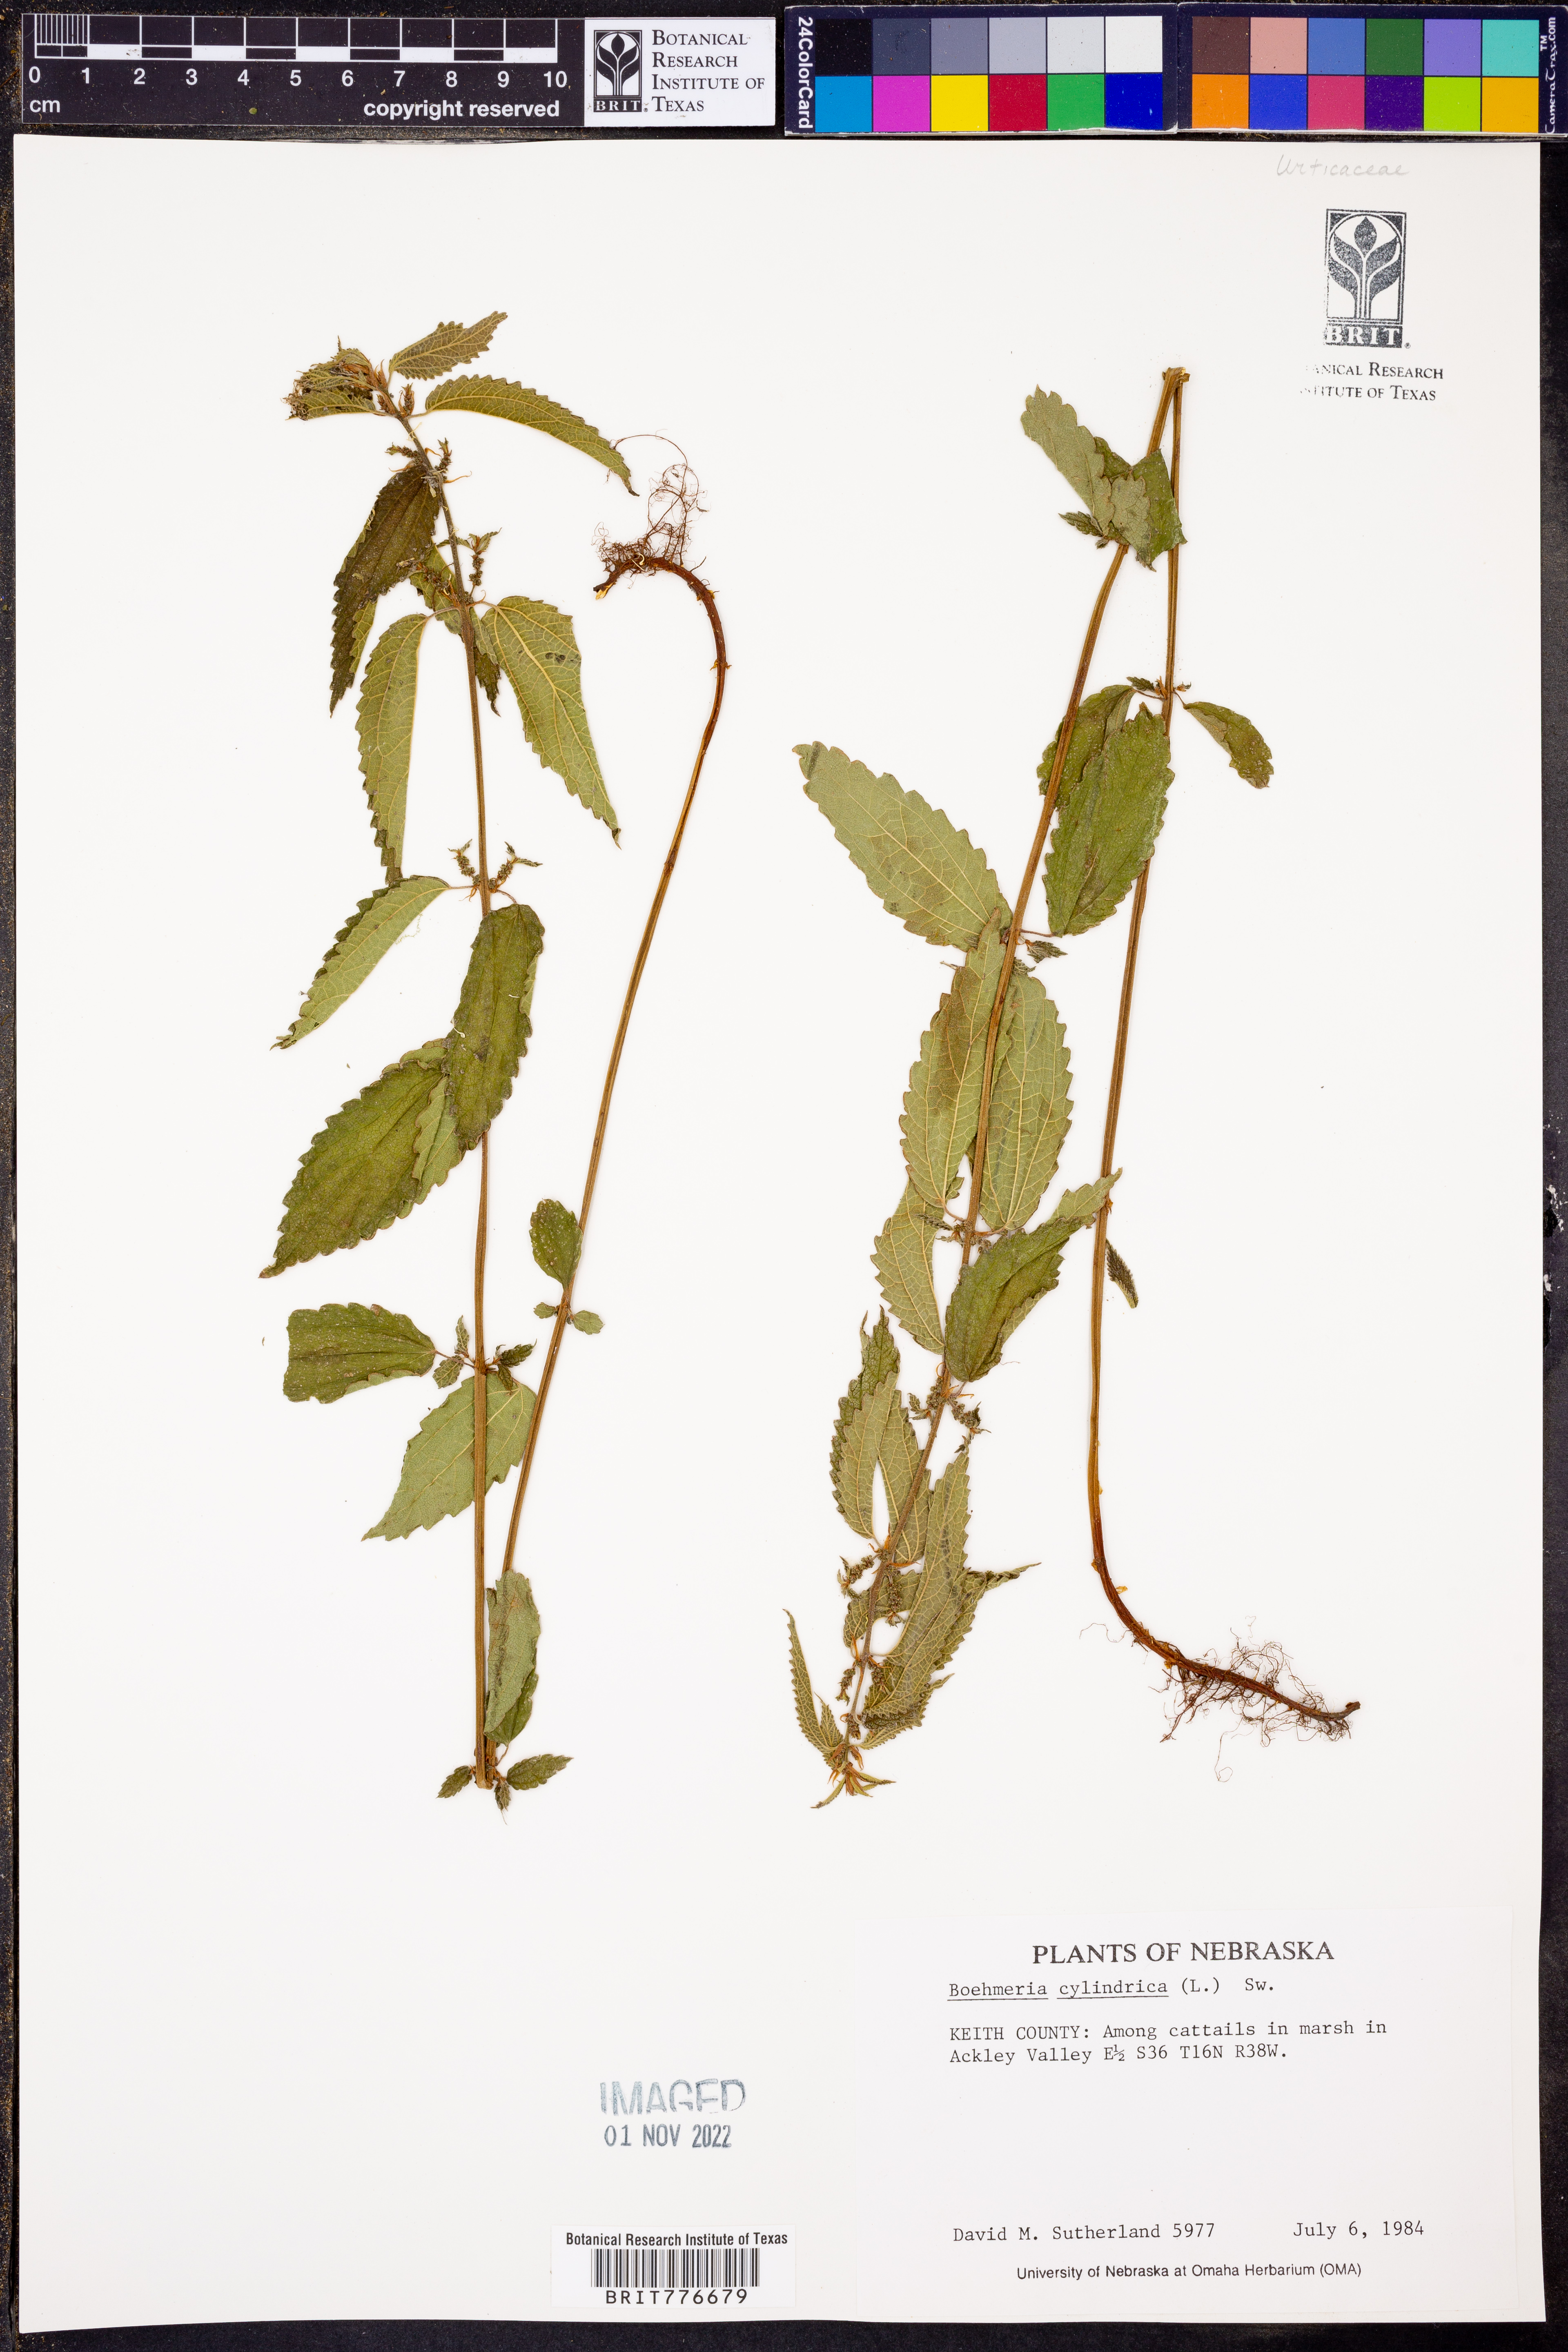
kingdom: Plantae
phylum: Tracheophyta
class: Magnoliopsida
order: Rosales
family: Urticaceae
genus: Boehmeria
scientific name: Boehmeria cylindrica
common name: Bog-hemp
